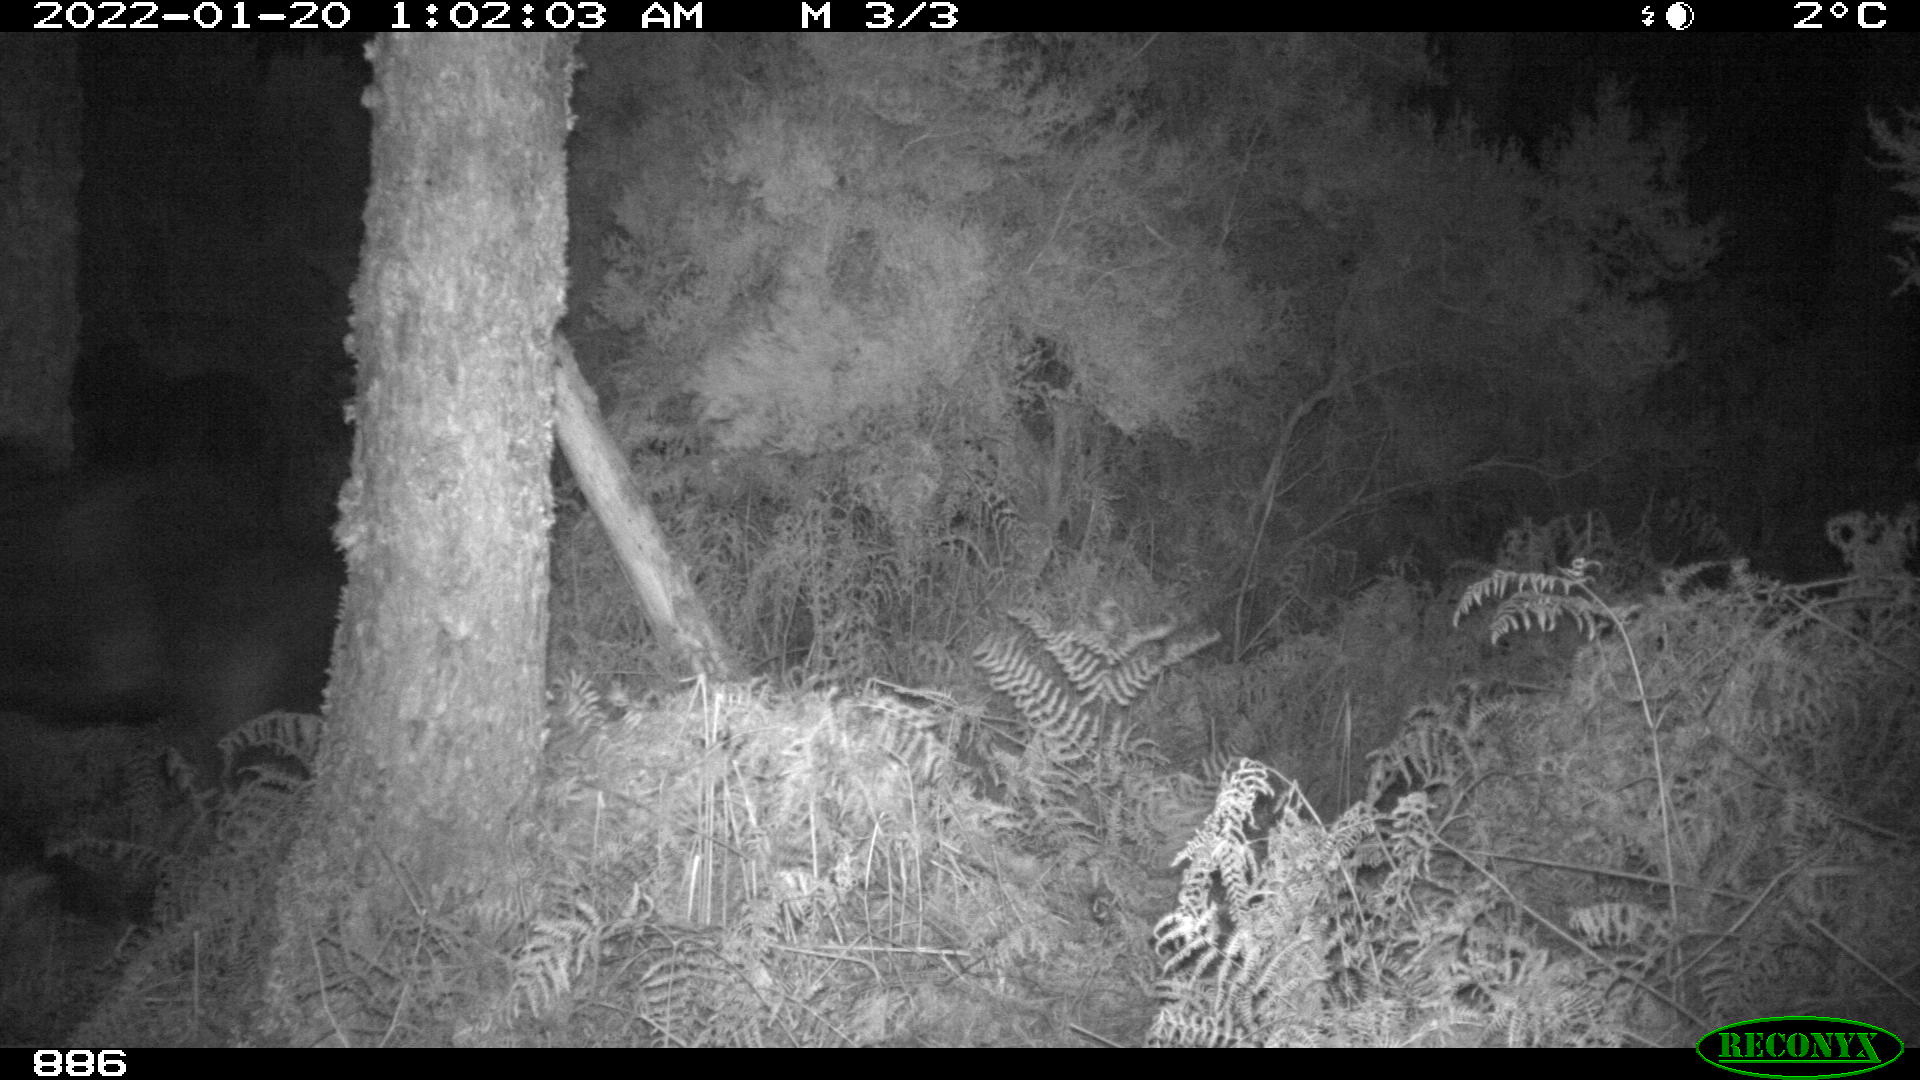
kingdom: Animalia
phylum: Chordata
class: Mammalia
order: Perissodactyla
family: Equidae
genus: Equus
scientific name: Equus caballus
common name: Horse
